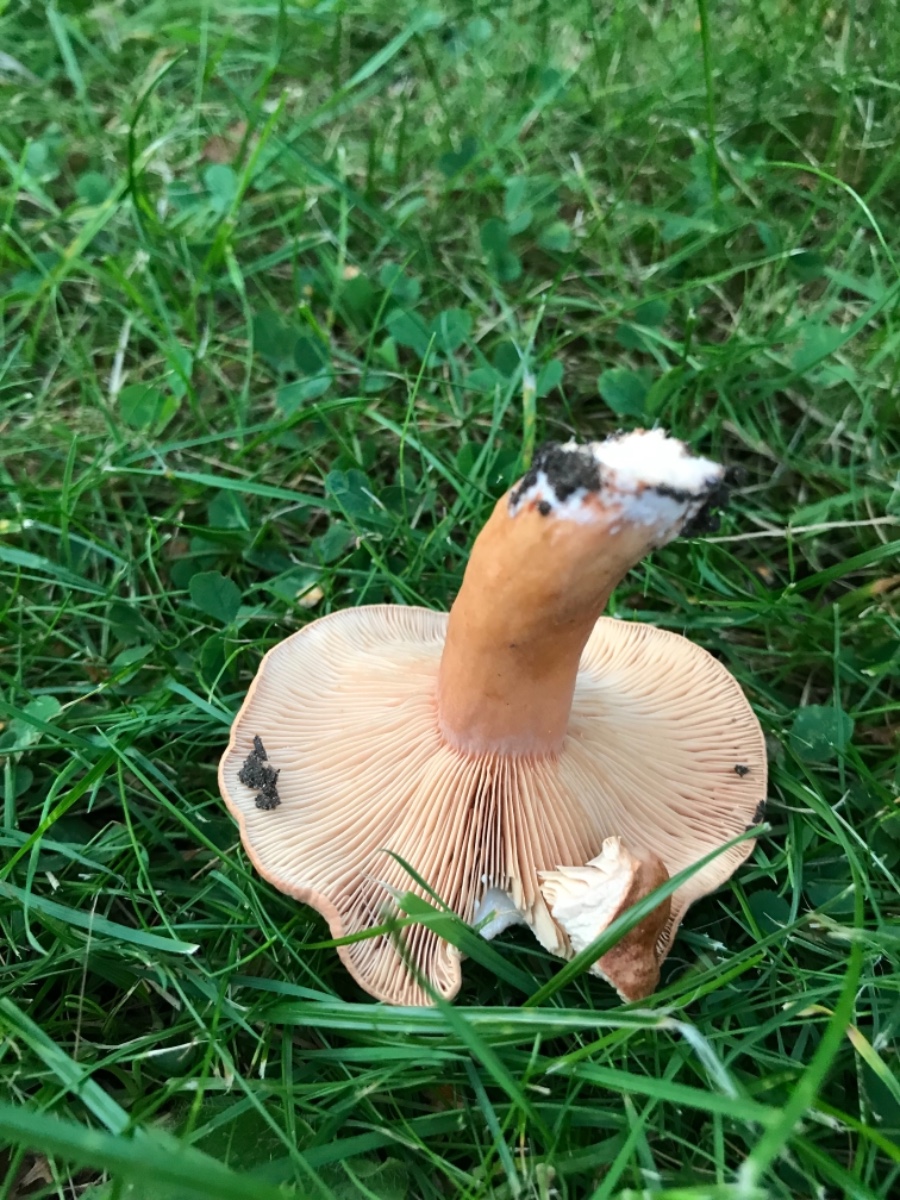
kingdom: Fungi
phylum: Basidiomycota
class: Agaricomycetes
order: Russulales
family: Russulaceae
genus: Lactarius
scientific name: Lactarius tabidus
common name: rynket mælkehat
